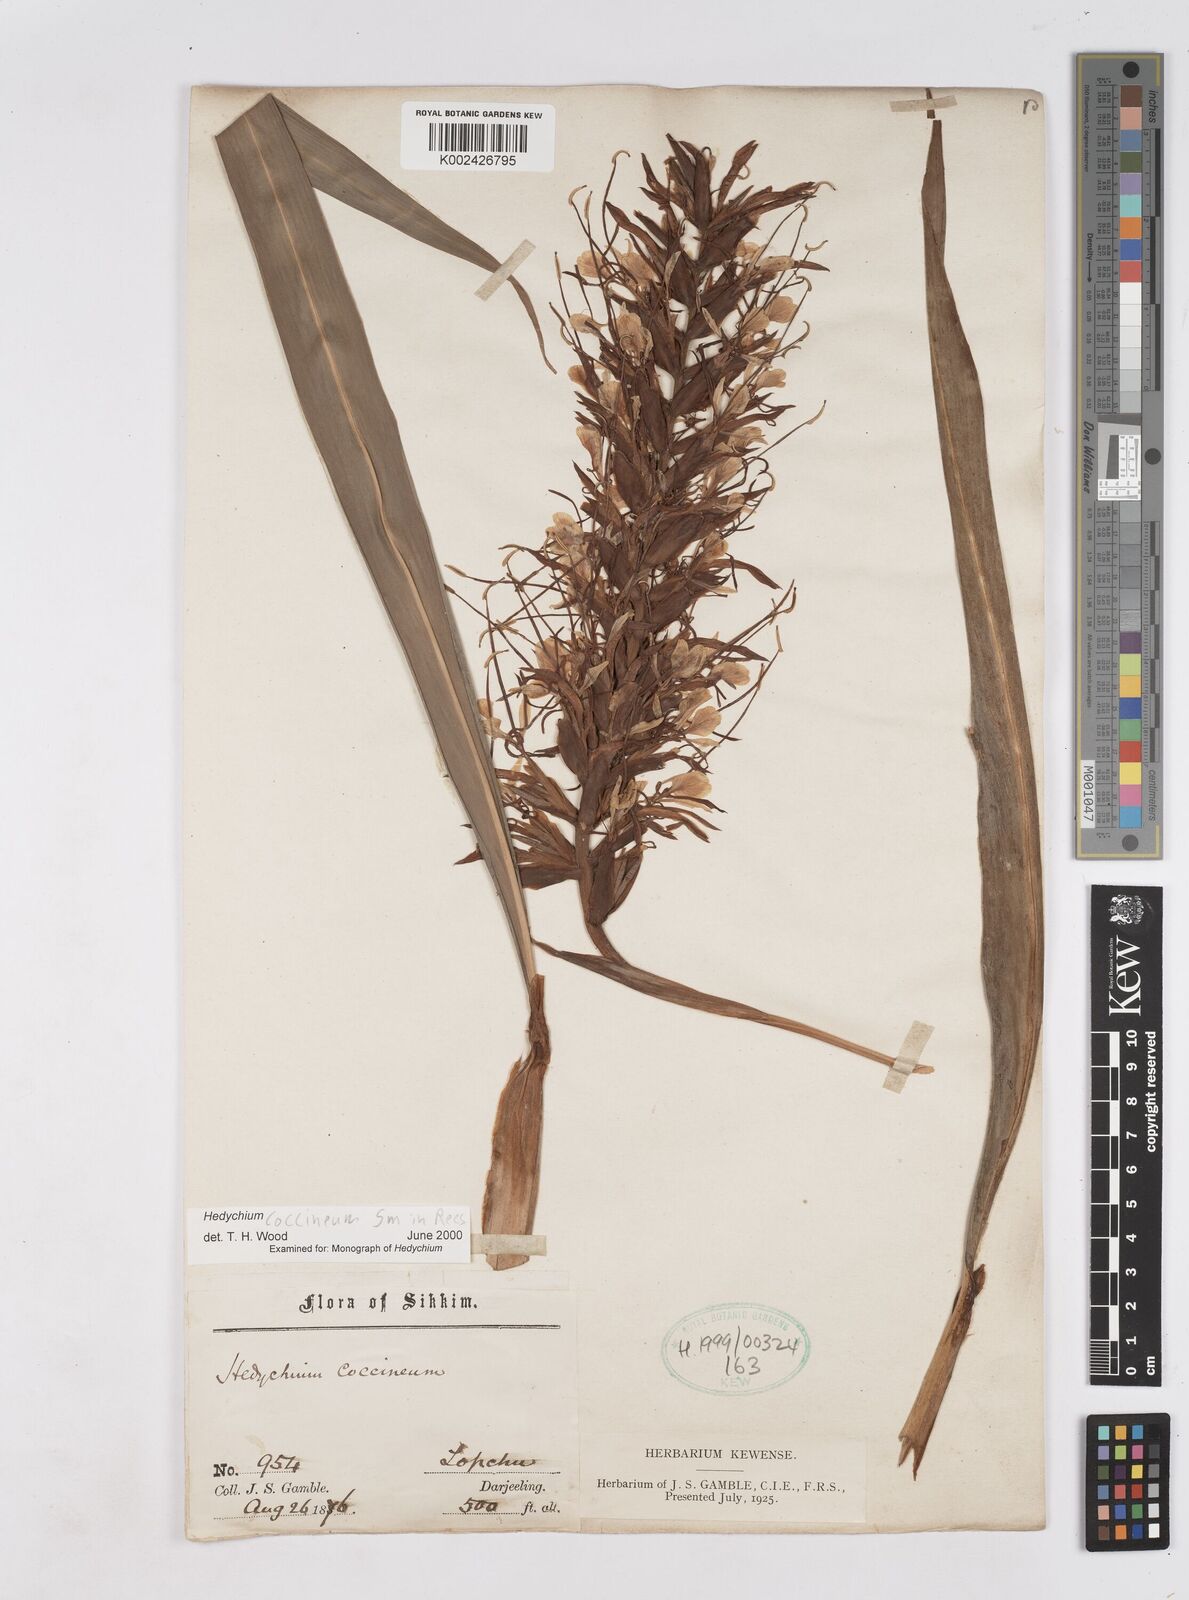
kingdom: Plantae
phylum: Tracheophyta
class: Liliopsida
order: Zingiberales
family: Zingiberaceae
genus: Hedychium
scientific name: Hedychium coccineum
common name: Red ginger-lily
